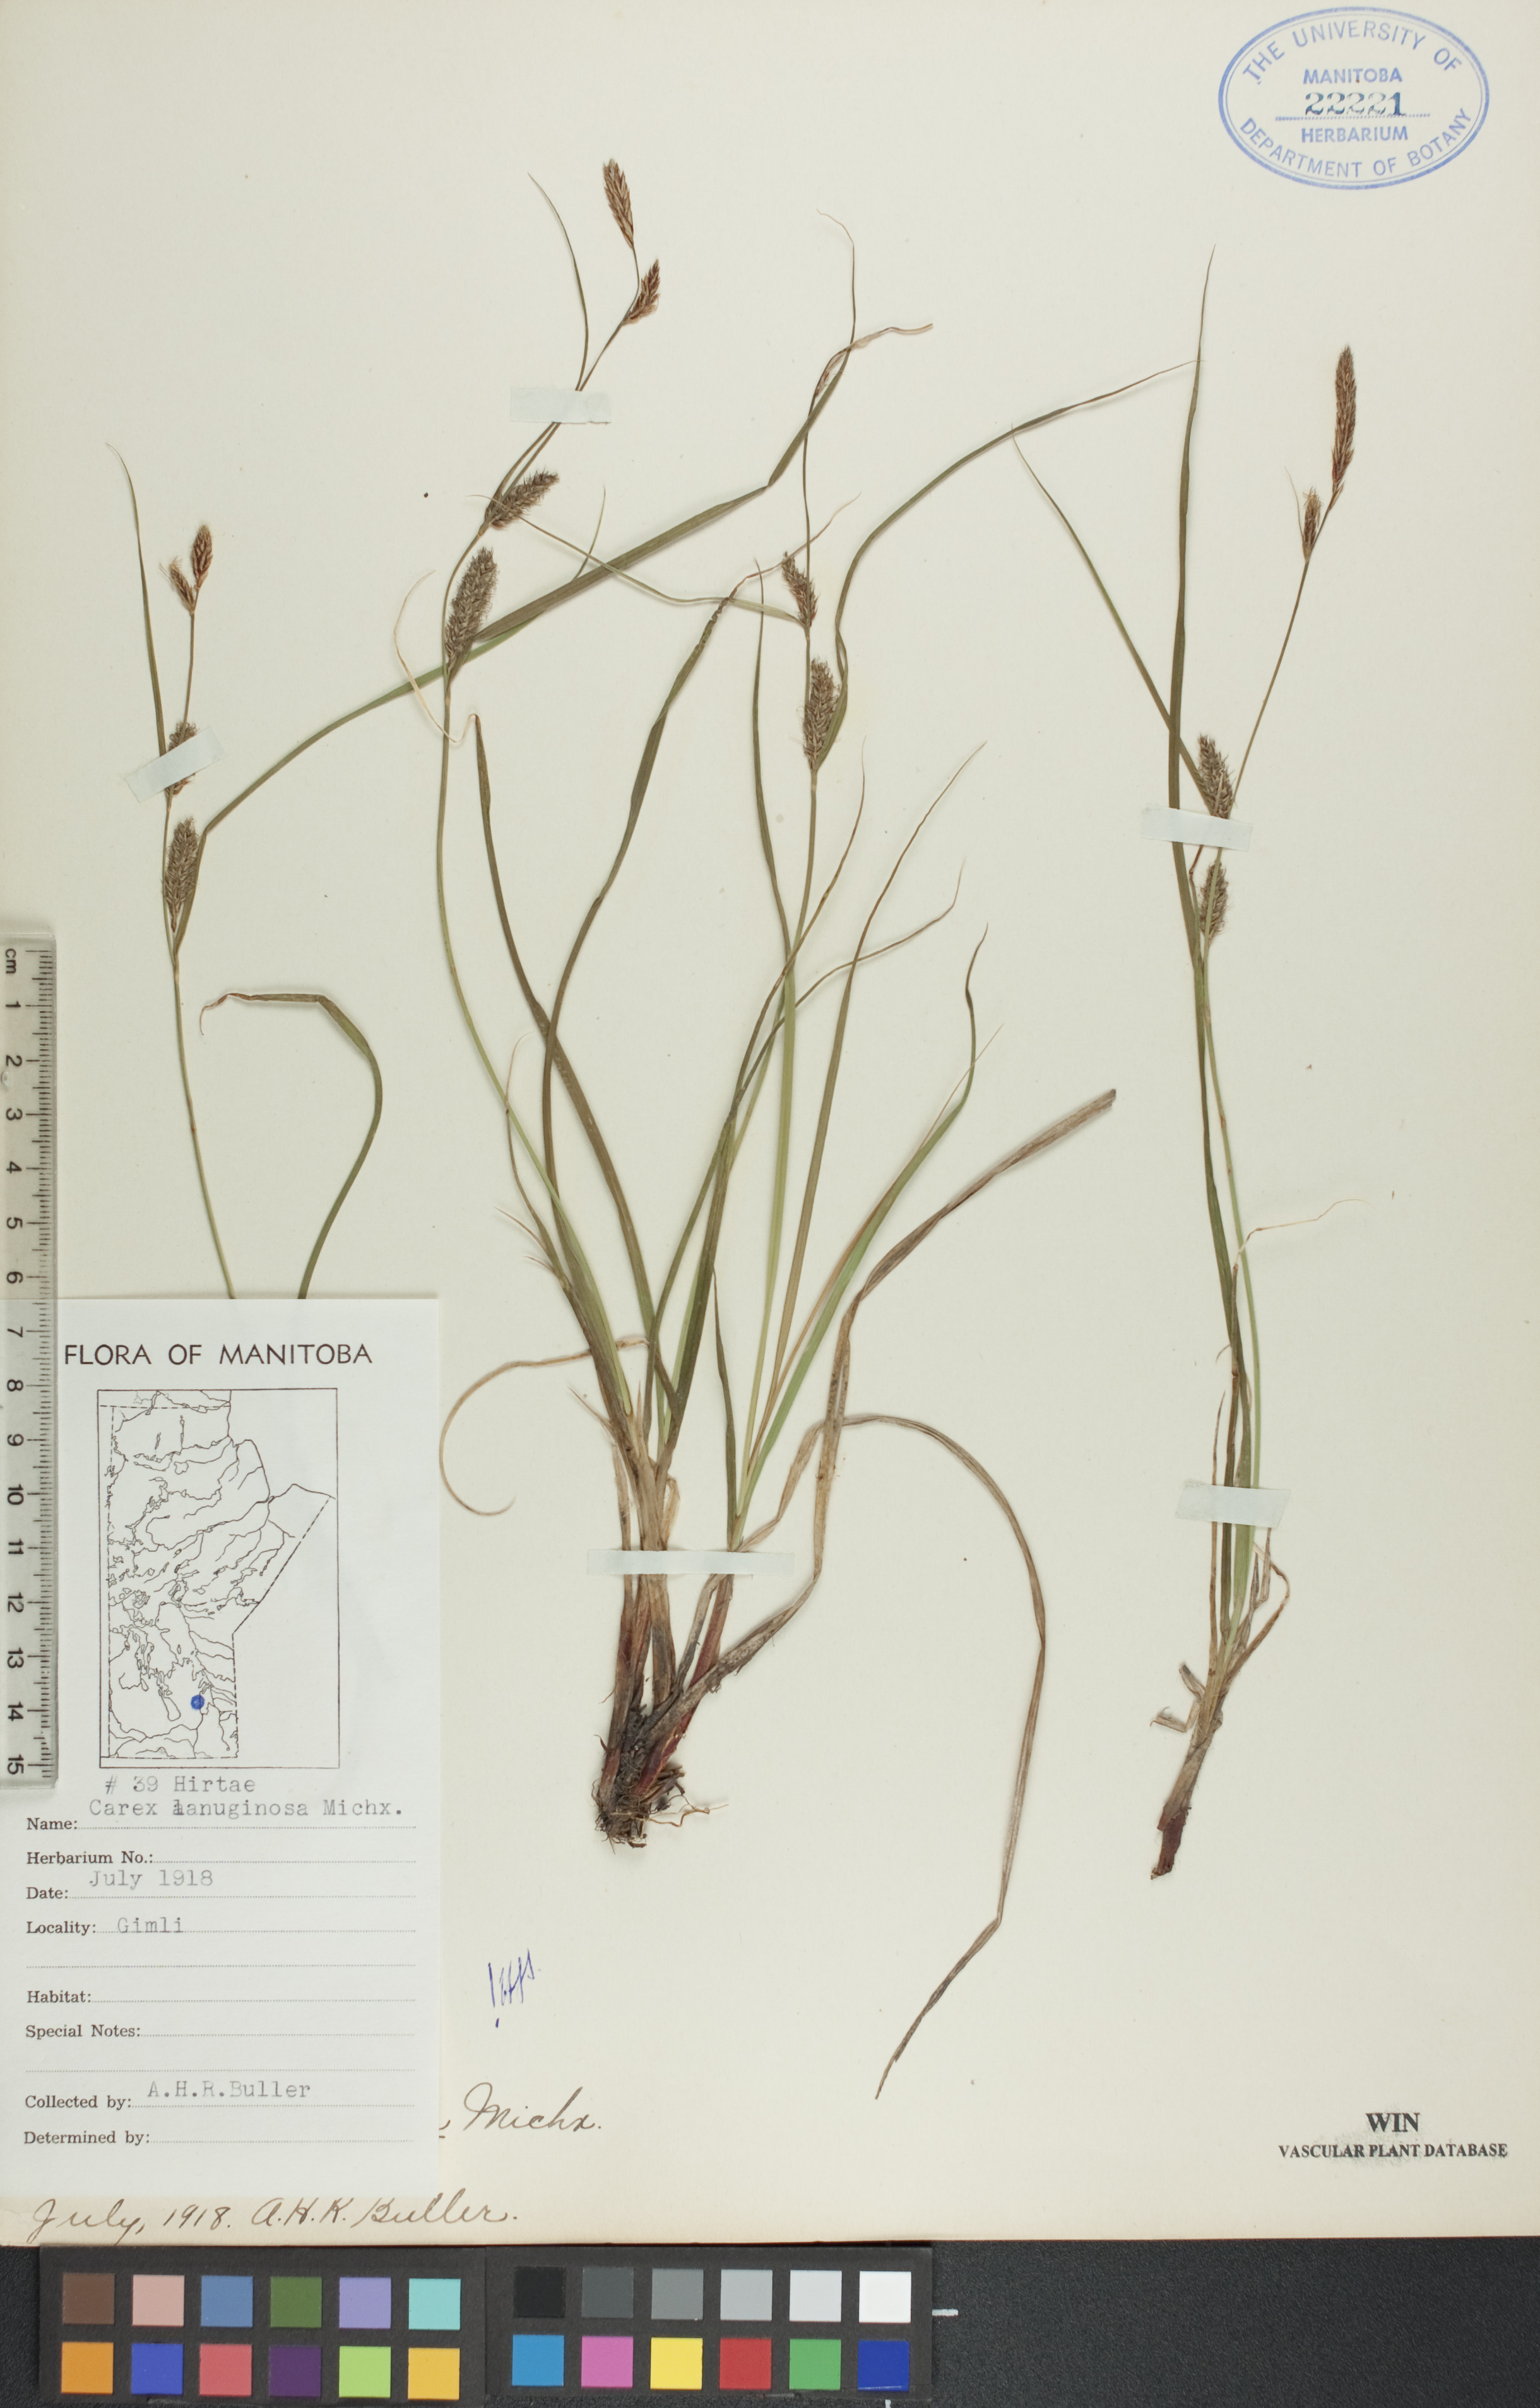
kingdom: Plantae
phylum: Tracheophyta
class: Liliopsida
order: Poales
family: Cyperaceae
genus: Carex
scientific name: Carex lasiocarpa
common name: Slender sedge
